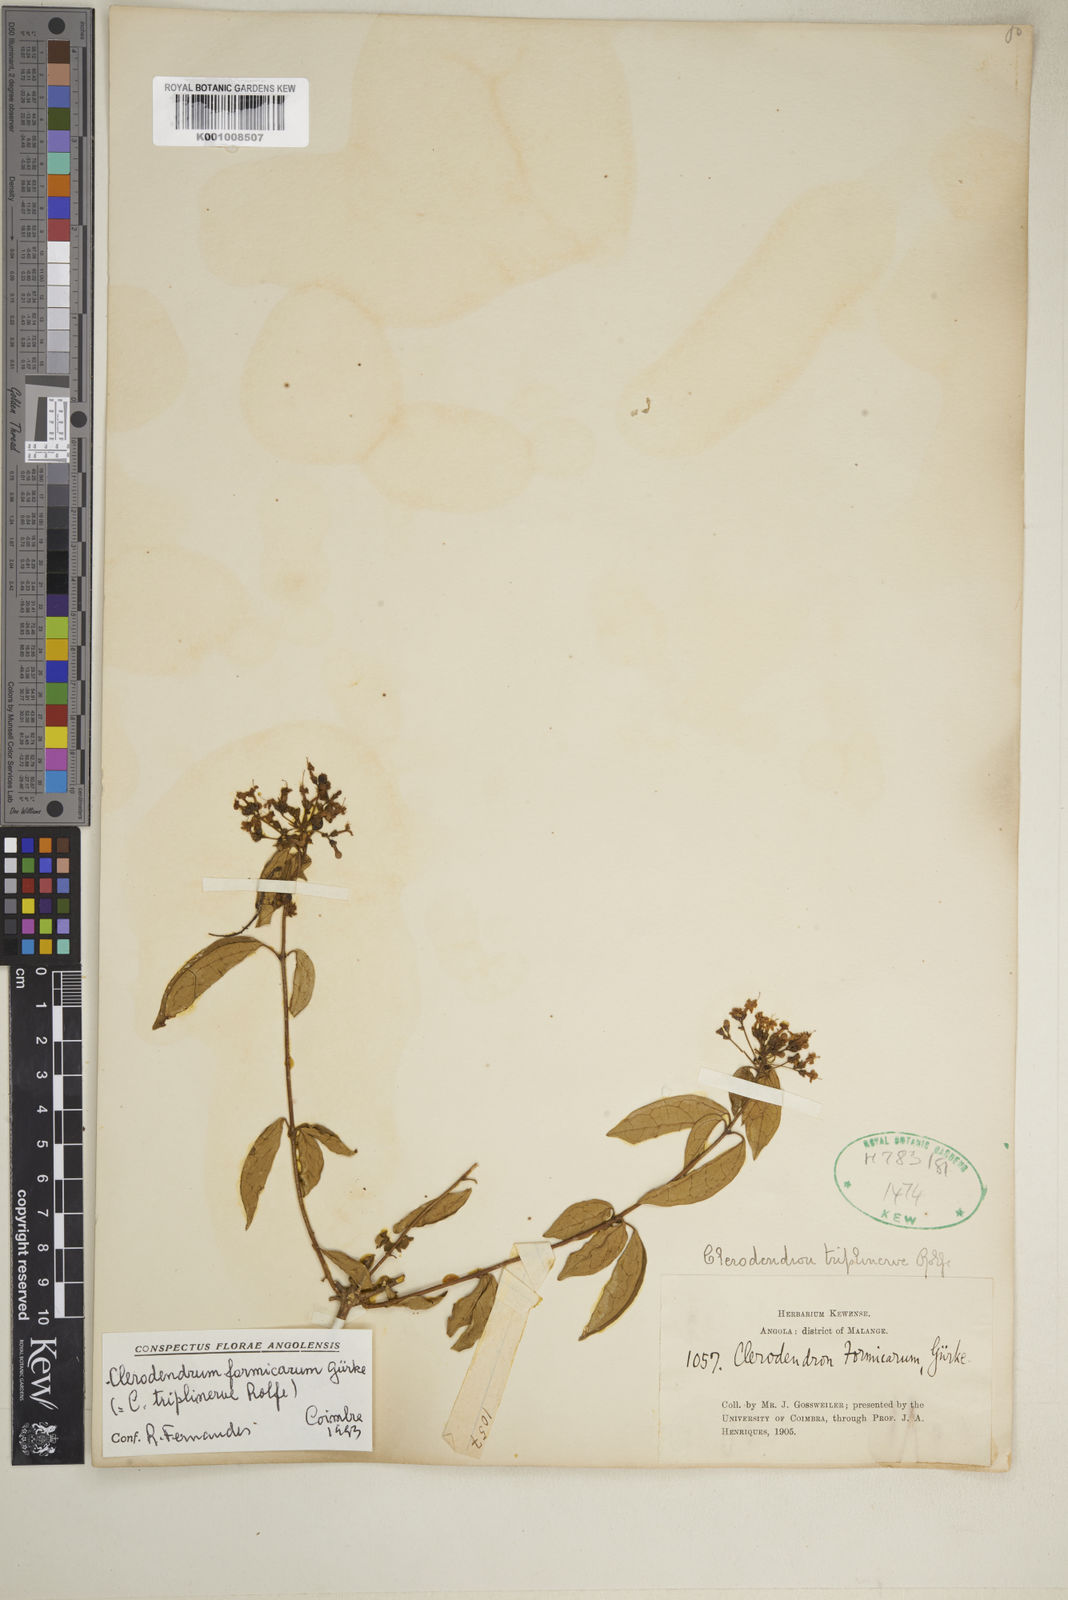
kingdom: Plantae
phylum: Tracheophyta
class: Magnoliopsida
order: Lamiales
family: Lamiaceae
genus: Clerodendrum
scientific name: Clerodendrum
